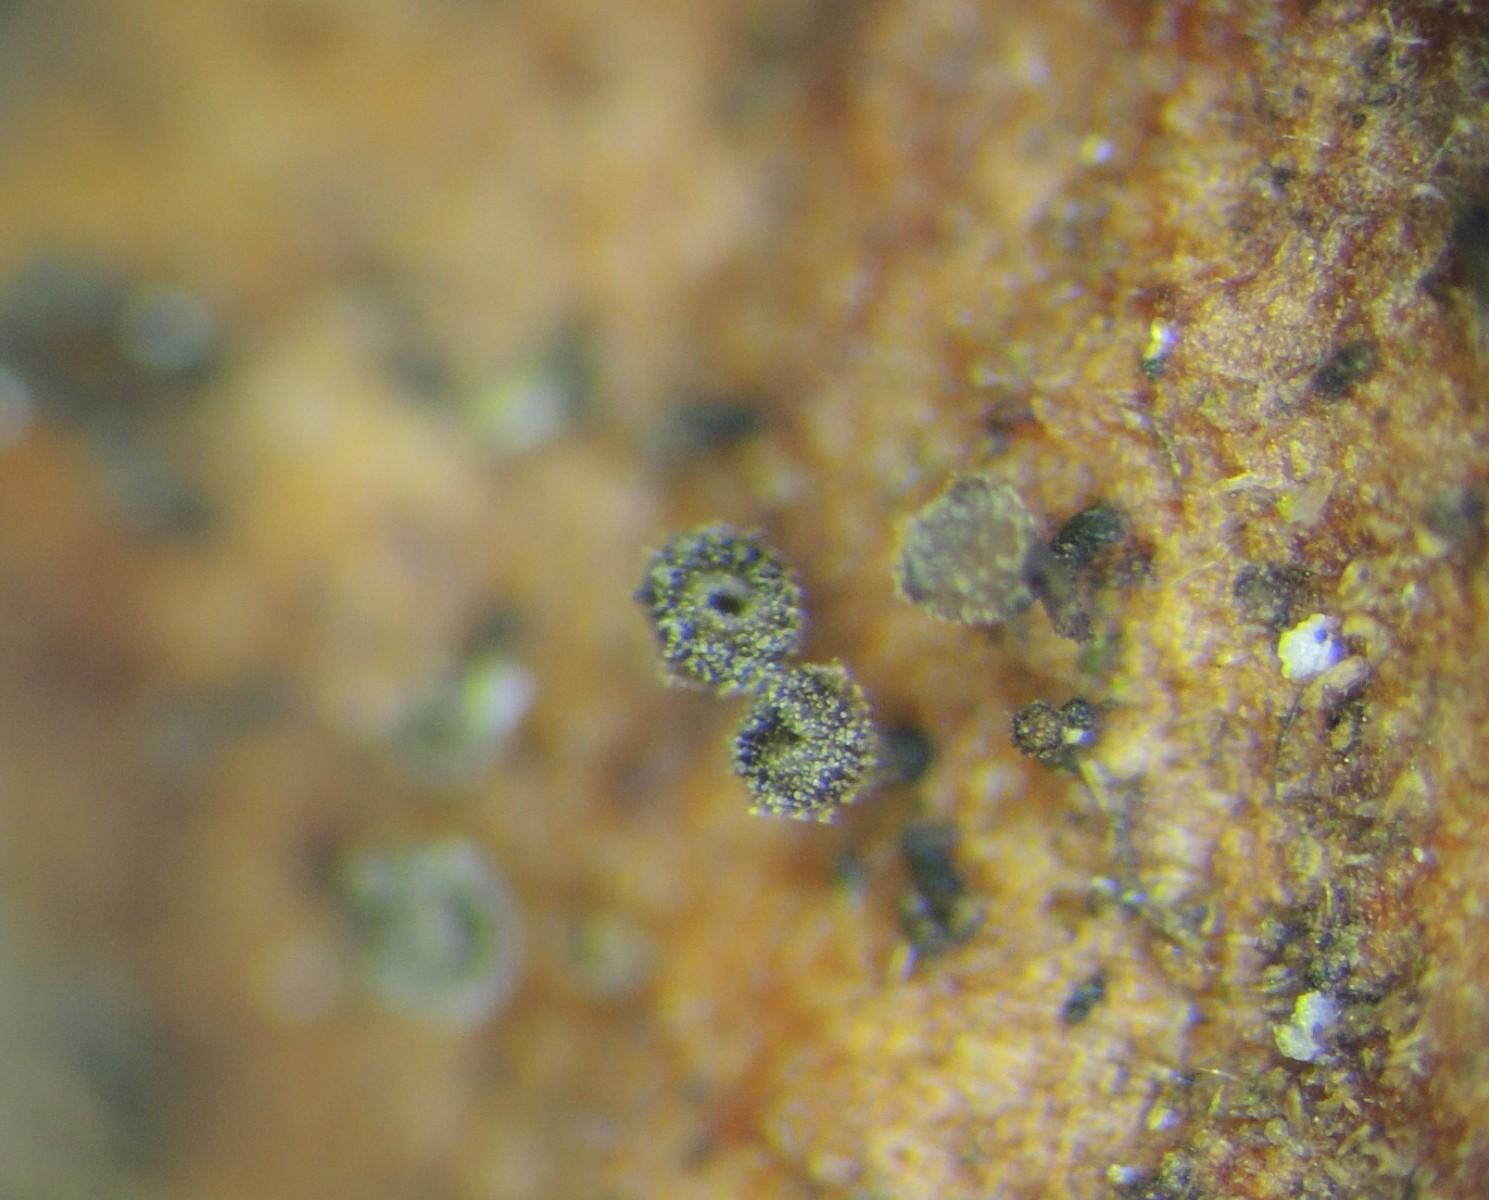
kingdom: Fungi
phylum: Ascomycota
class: Leotiomycetes
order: Helotiales
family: Lachnaceae
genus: Brunnipila
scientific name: Brunnipila fuscescens
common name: bøge-frynseskive
